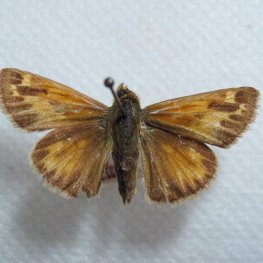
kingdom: Animalia
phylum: Arthropoda
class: Insecta
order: Lepidoptera
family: Hesperiidae
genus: Hesperia
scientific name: Hesperia sassacus
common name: Sassacus Skipper
